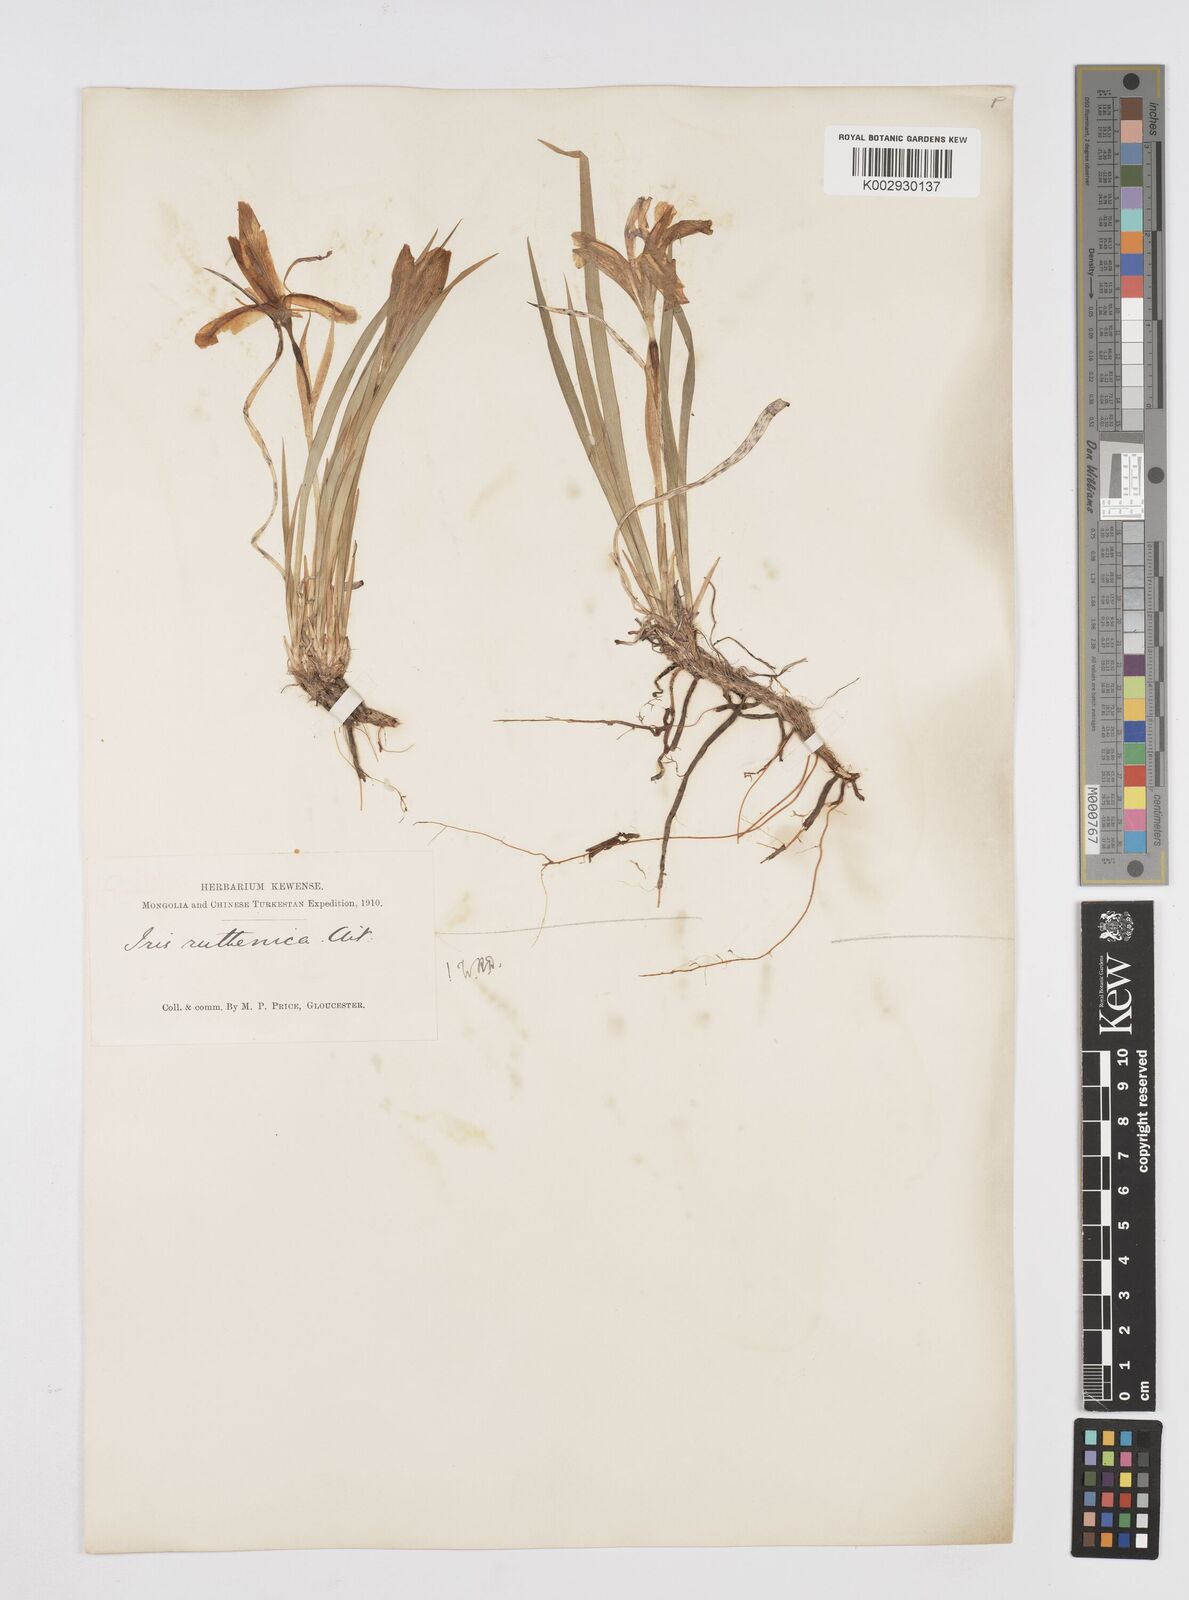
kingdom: Plantae
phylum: Tracheophyta
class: Liliopsida
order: Asparagales
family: Iridaceae
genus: Iris
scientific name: Iris ruthenica
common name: Purple-bract iris
